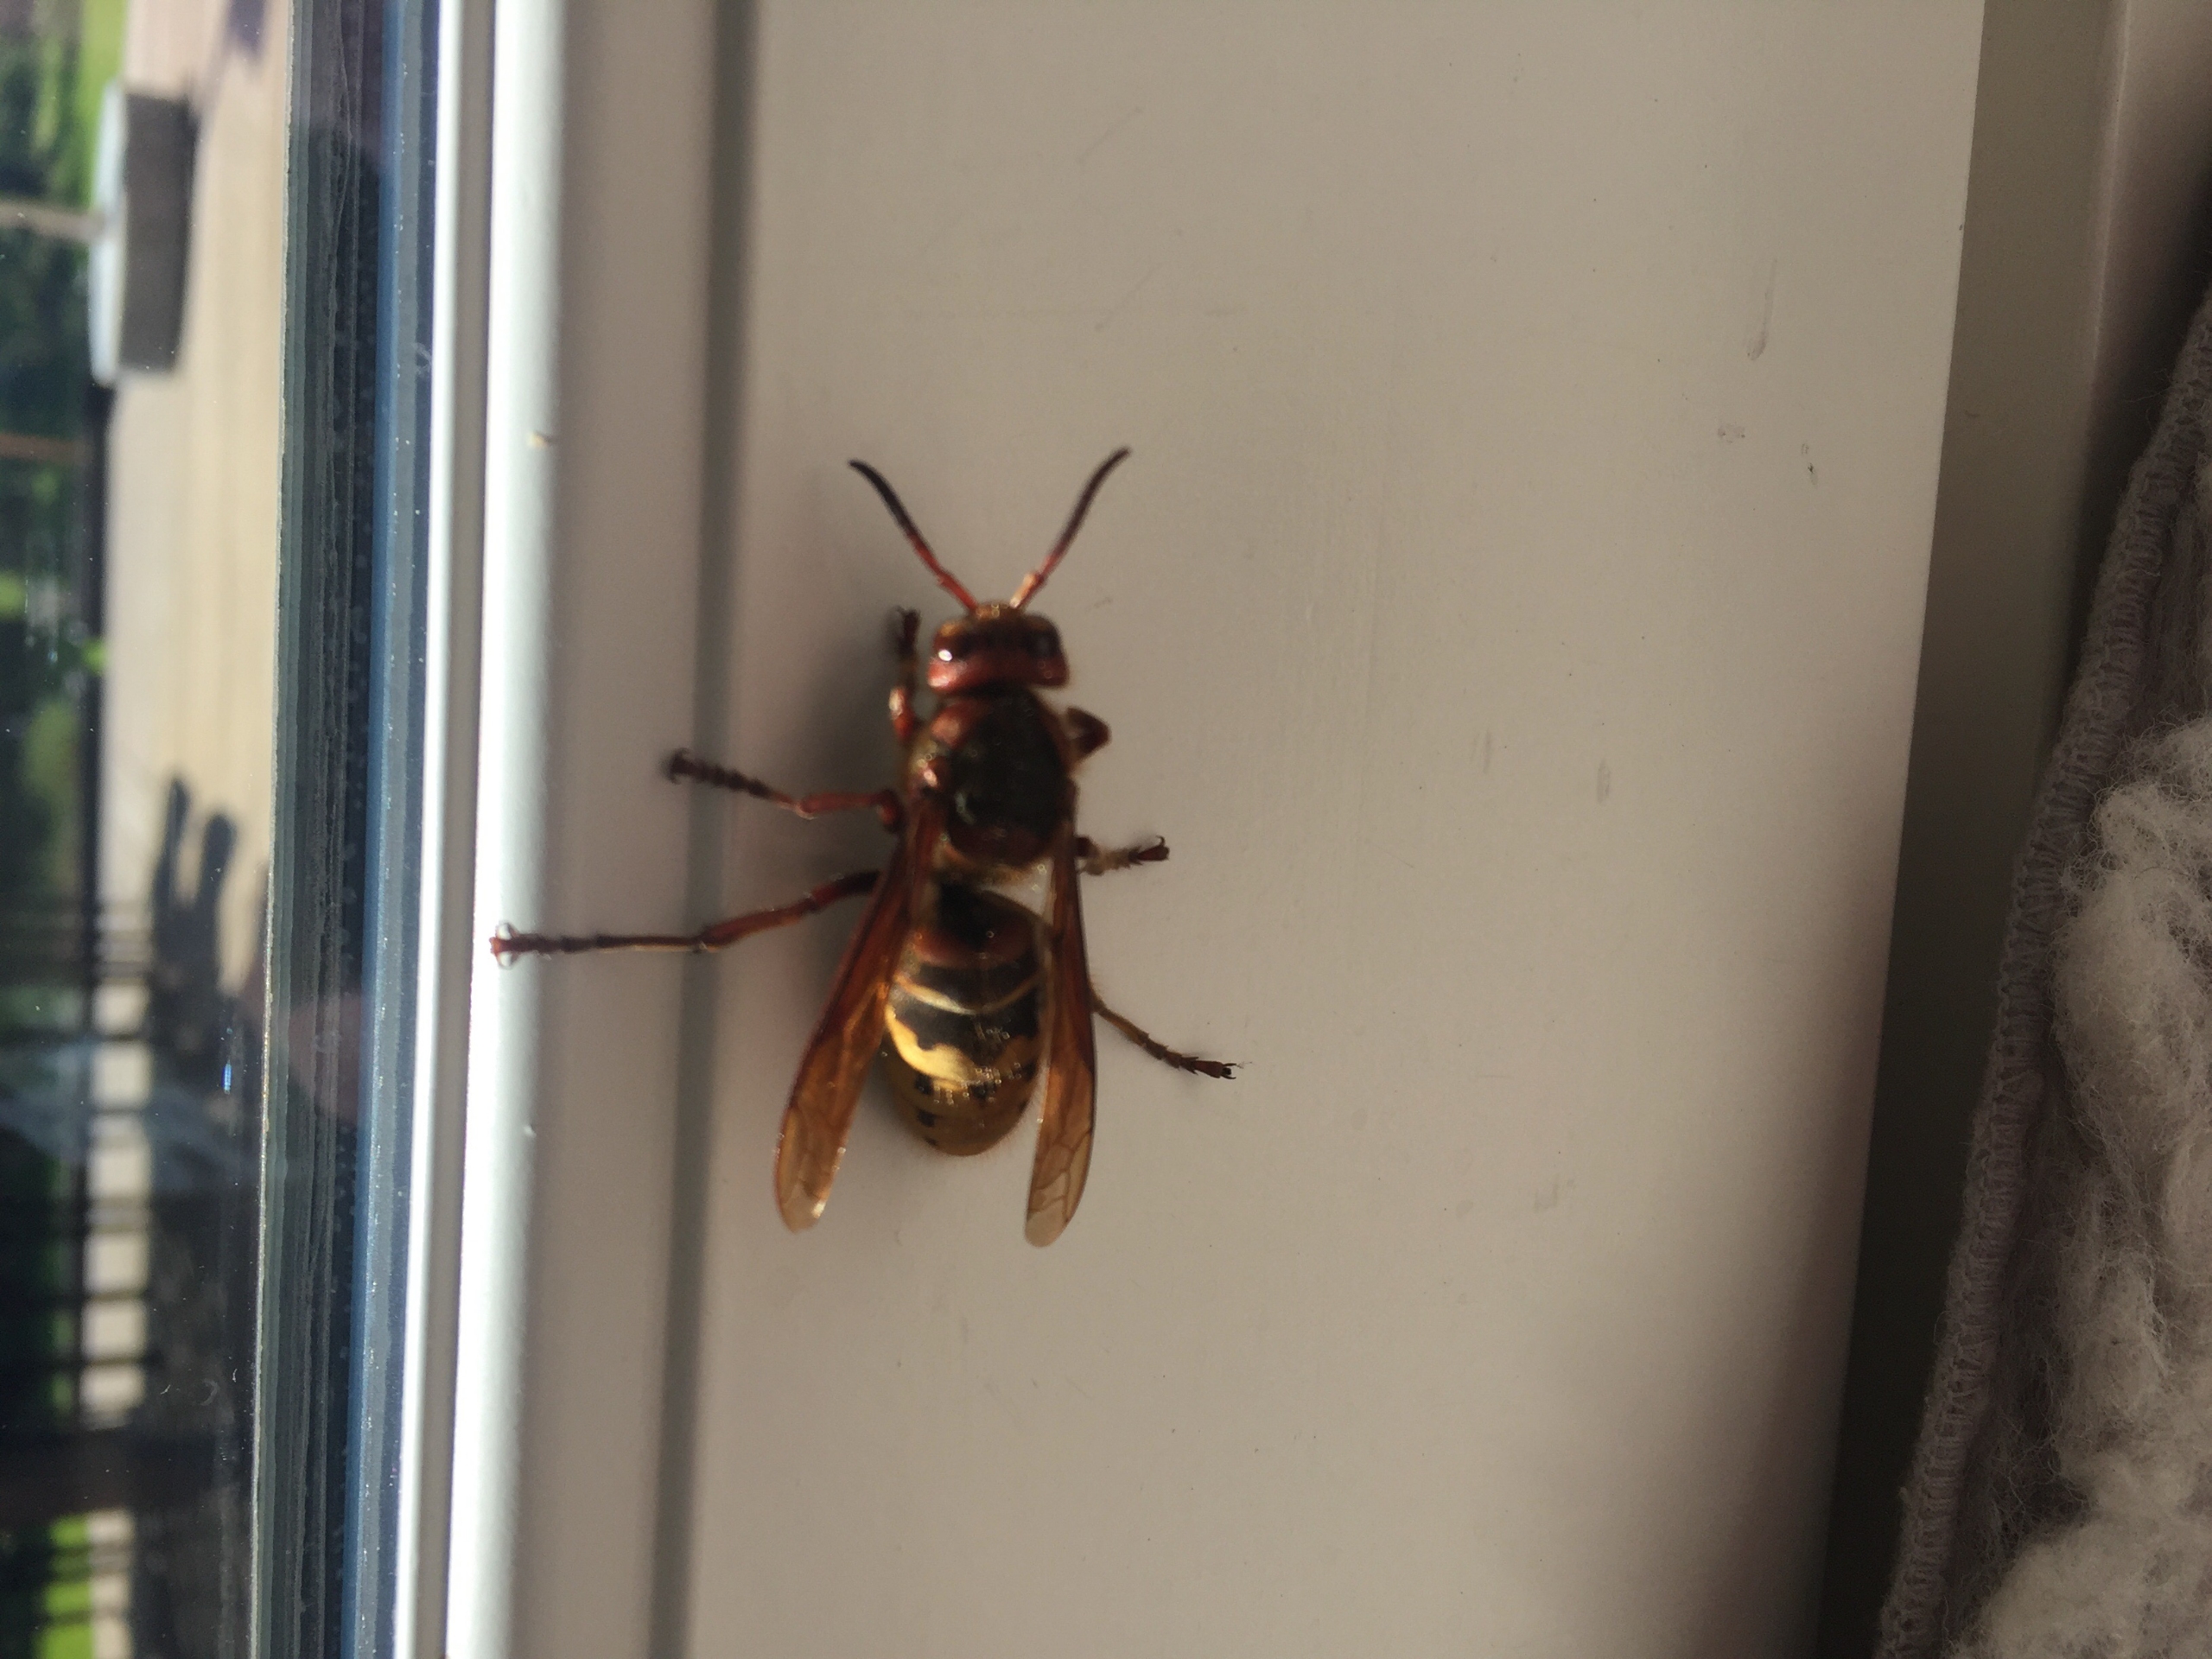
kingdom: Animalia
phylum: Arthropoda
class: Insecta
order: Hymenoptera
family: Vespidae
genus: Vespa
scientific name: Vespa crabro
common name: Stor gedehams
